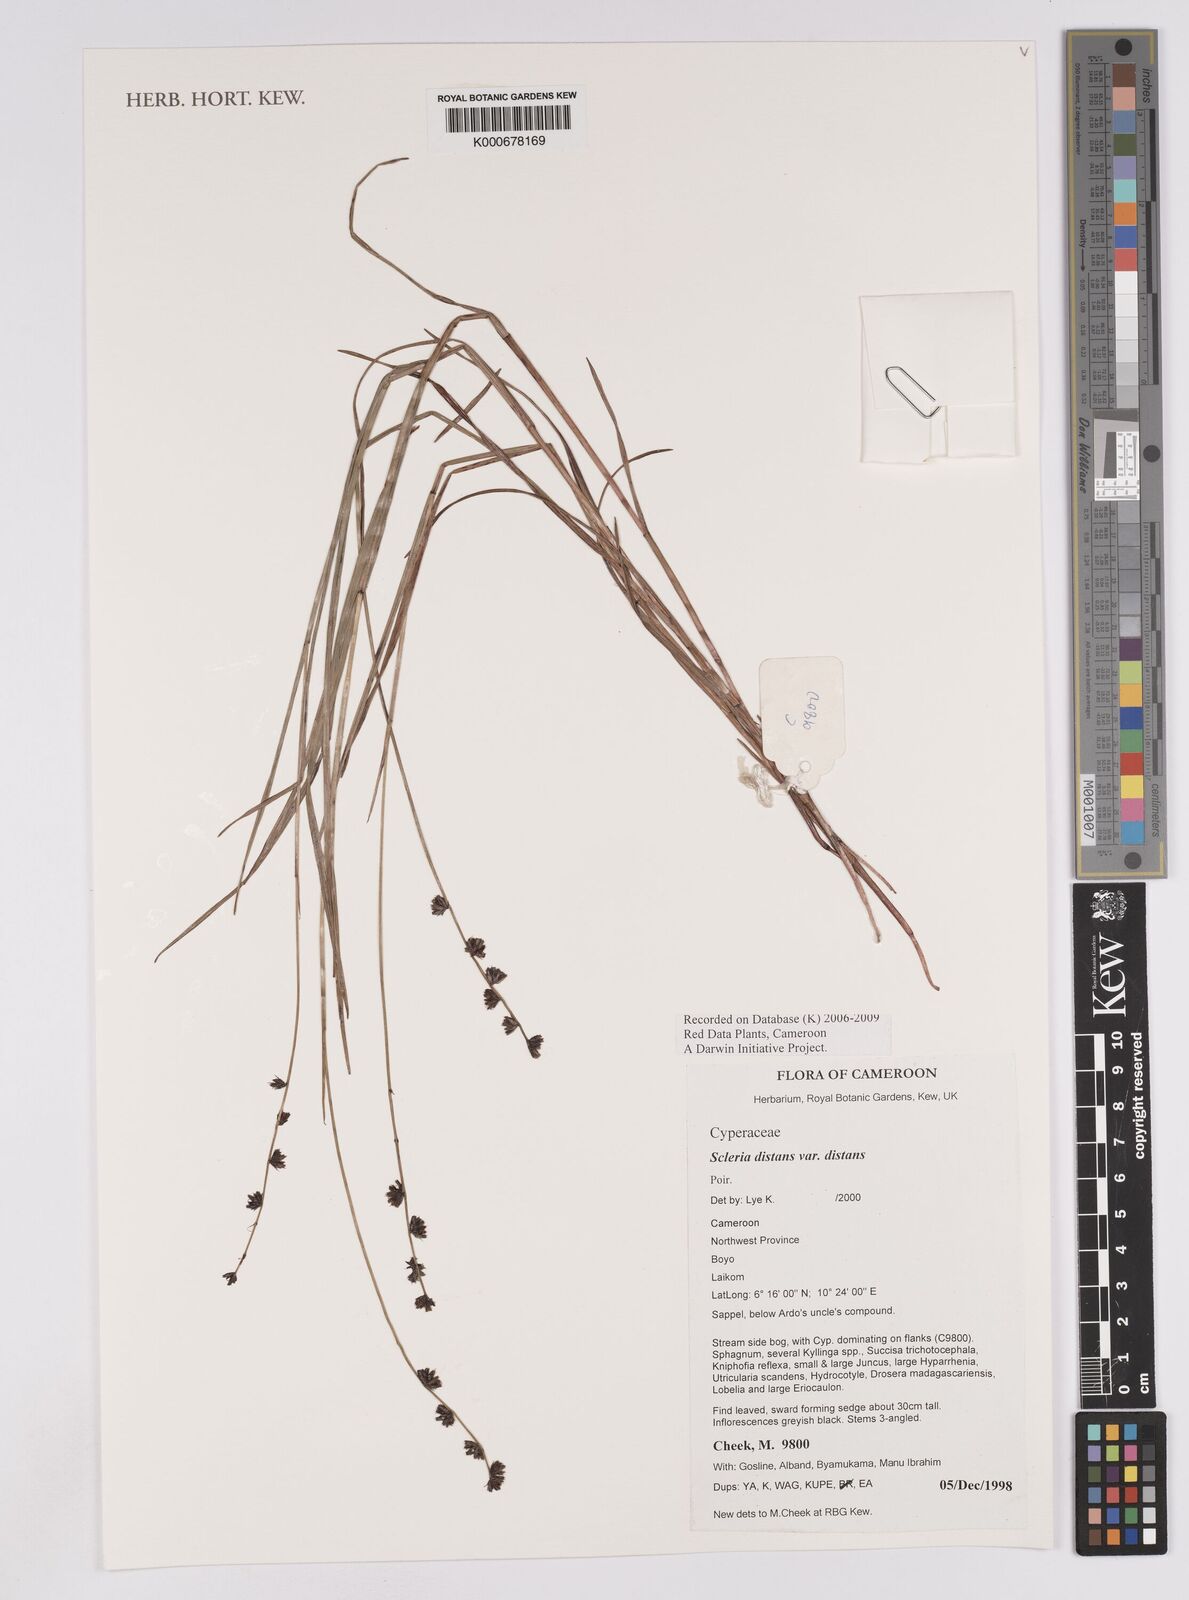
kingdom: Plantae
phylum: Tracheophyta
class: Liliopsida
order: Poales
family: Cyperaceae
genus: Scleria
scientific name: Scleria distans
